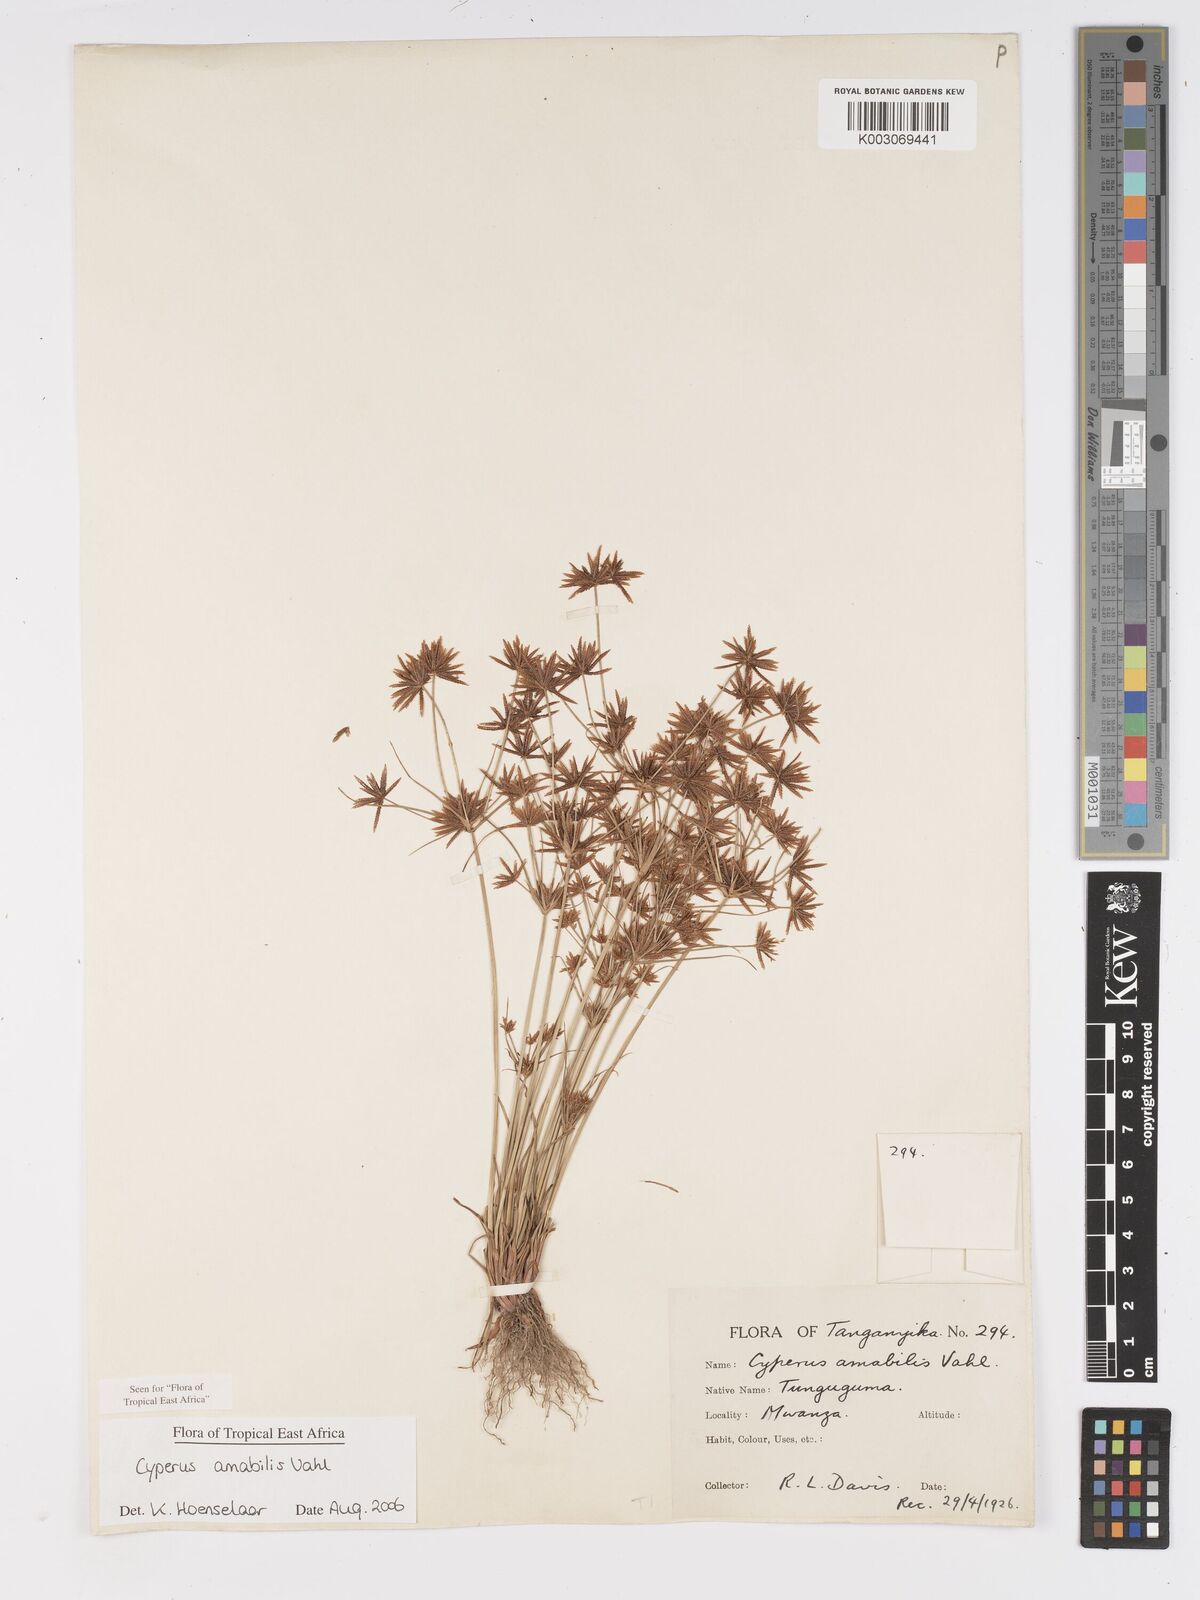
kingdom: Plantae
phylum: Tracheophyta
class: Liliopsida
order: Poales
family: Cyperaceae
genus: Cyperus
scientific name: Cyperus amabilis
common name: Foothill flat sedge
